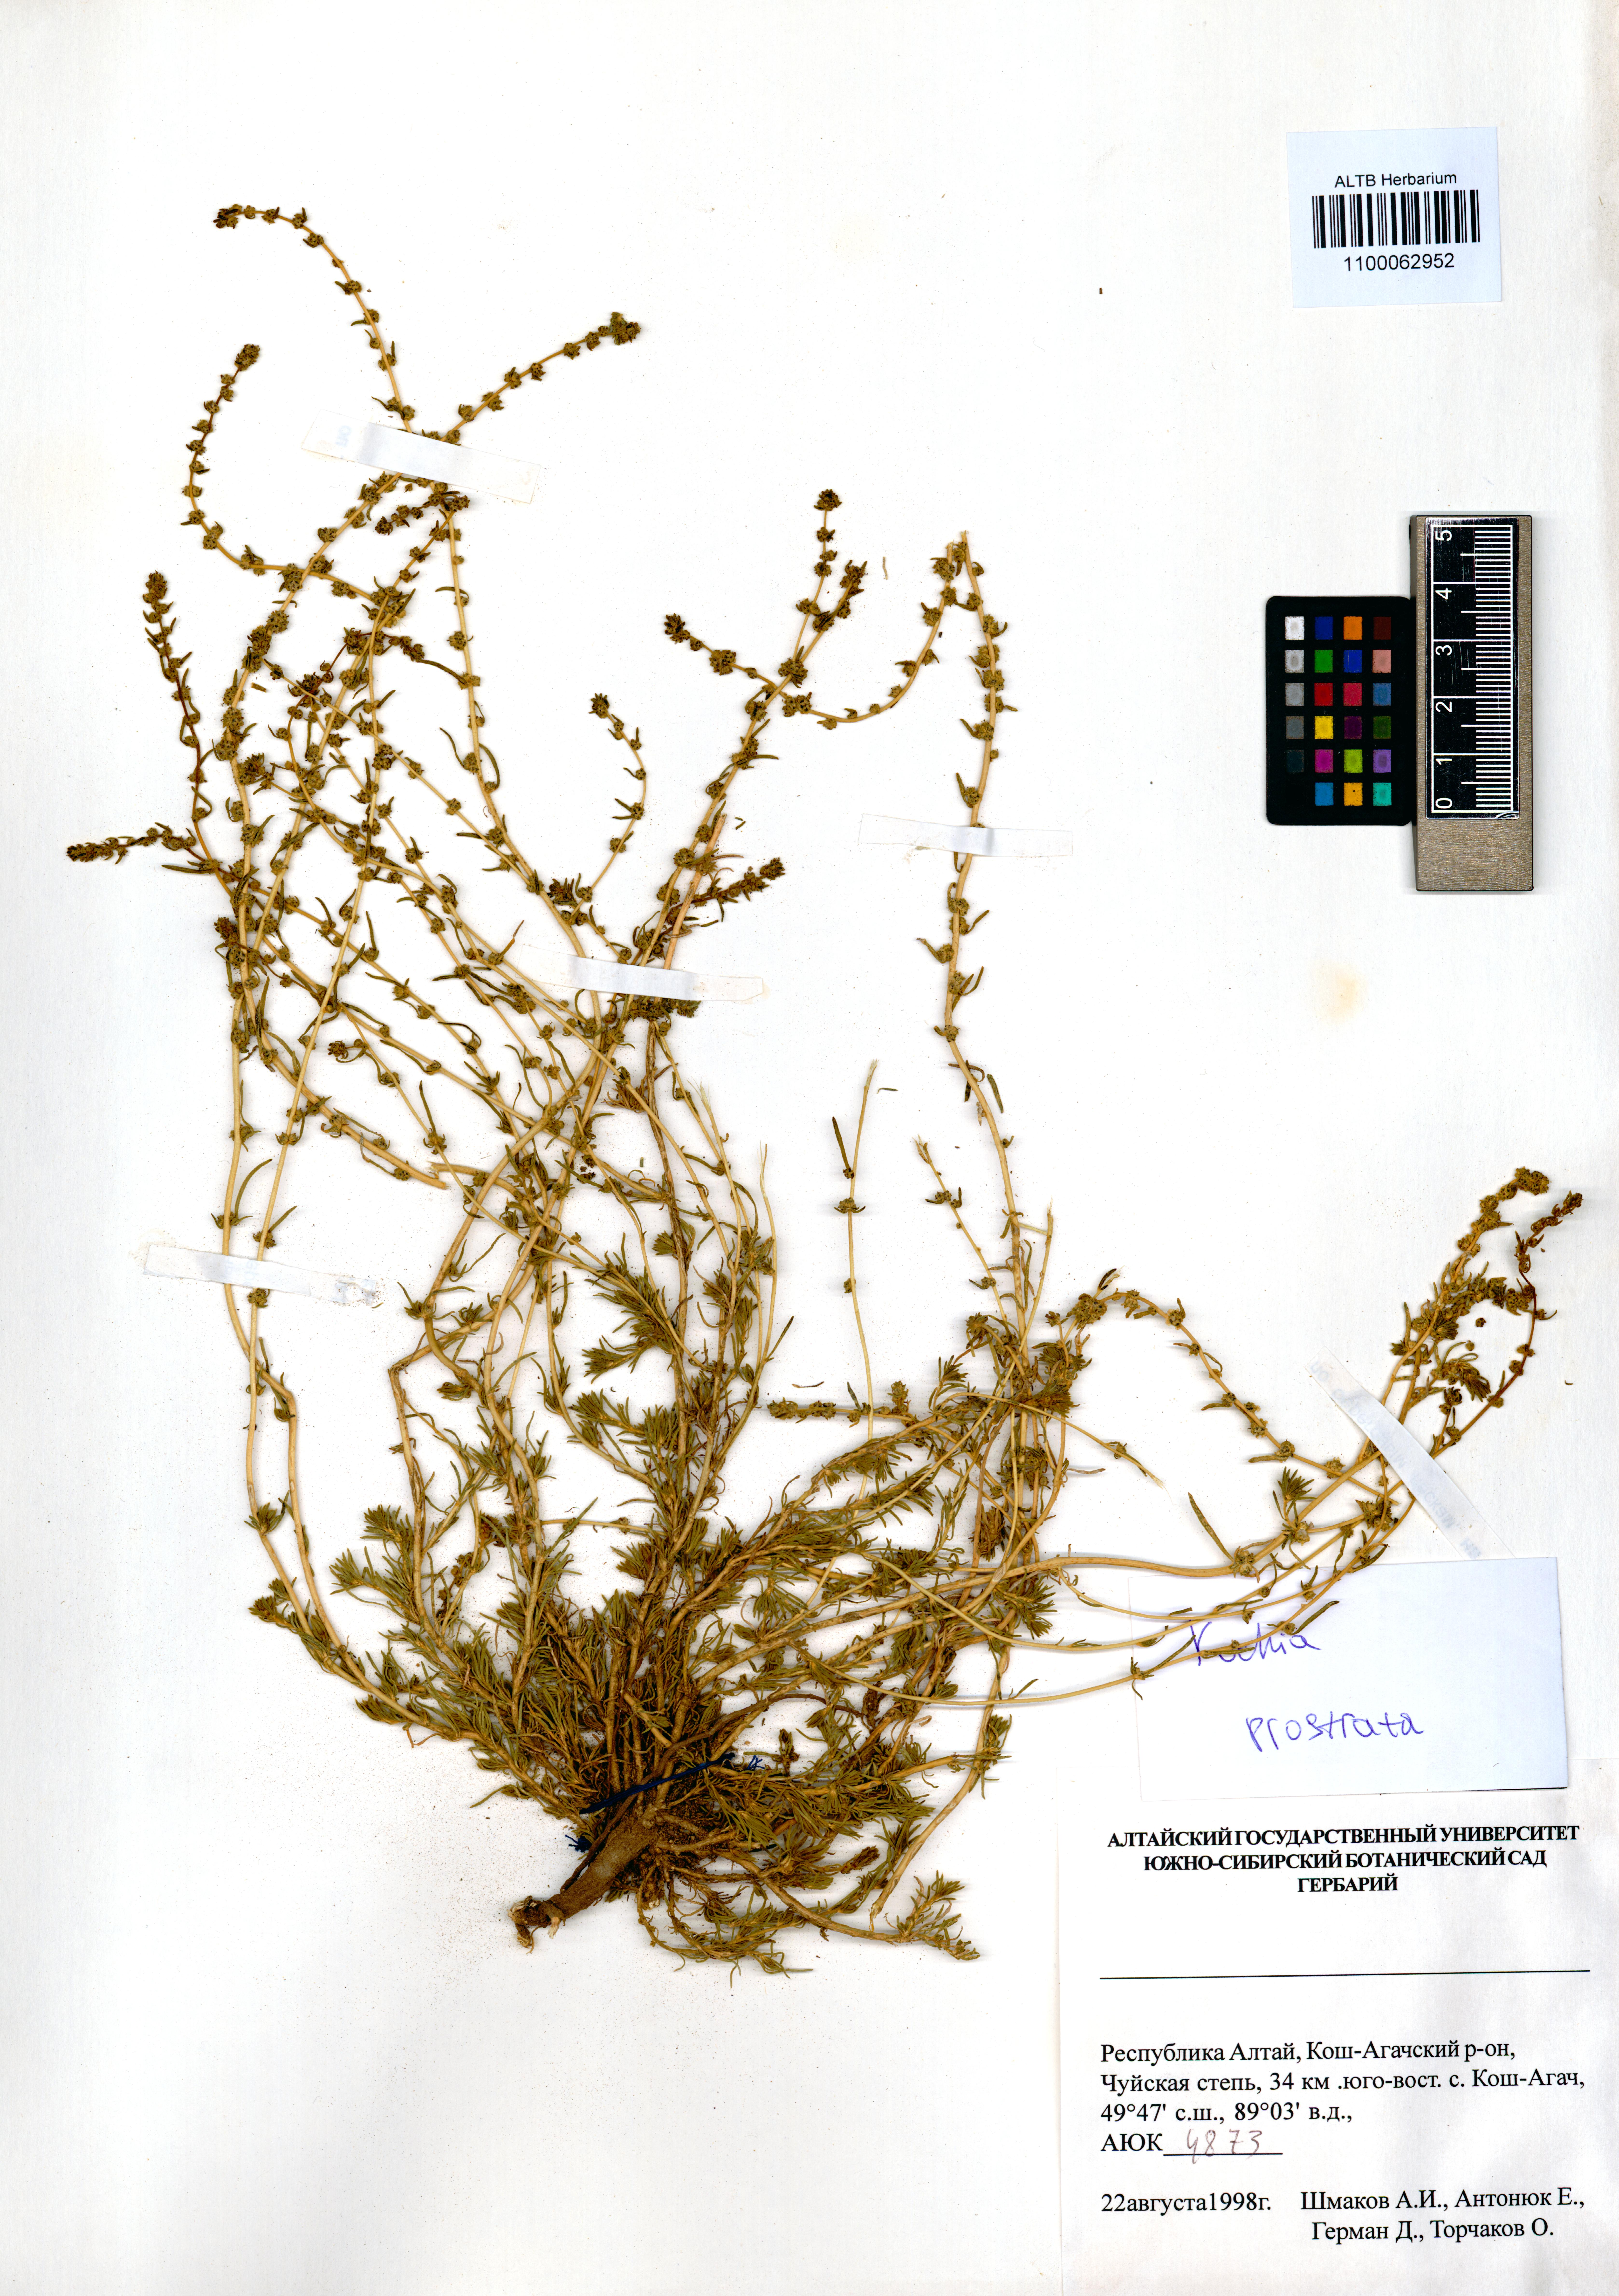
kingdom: Plantae
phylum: Tracheophyta
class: Magnoliopsida
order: Caryophyllales
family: Amaranthaceae
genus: Bassia
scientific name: Bassia prostrata
